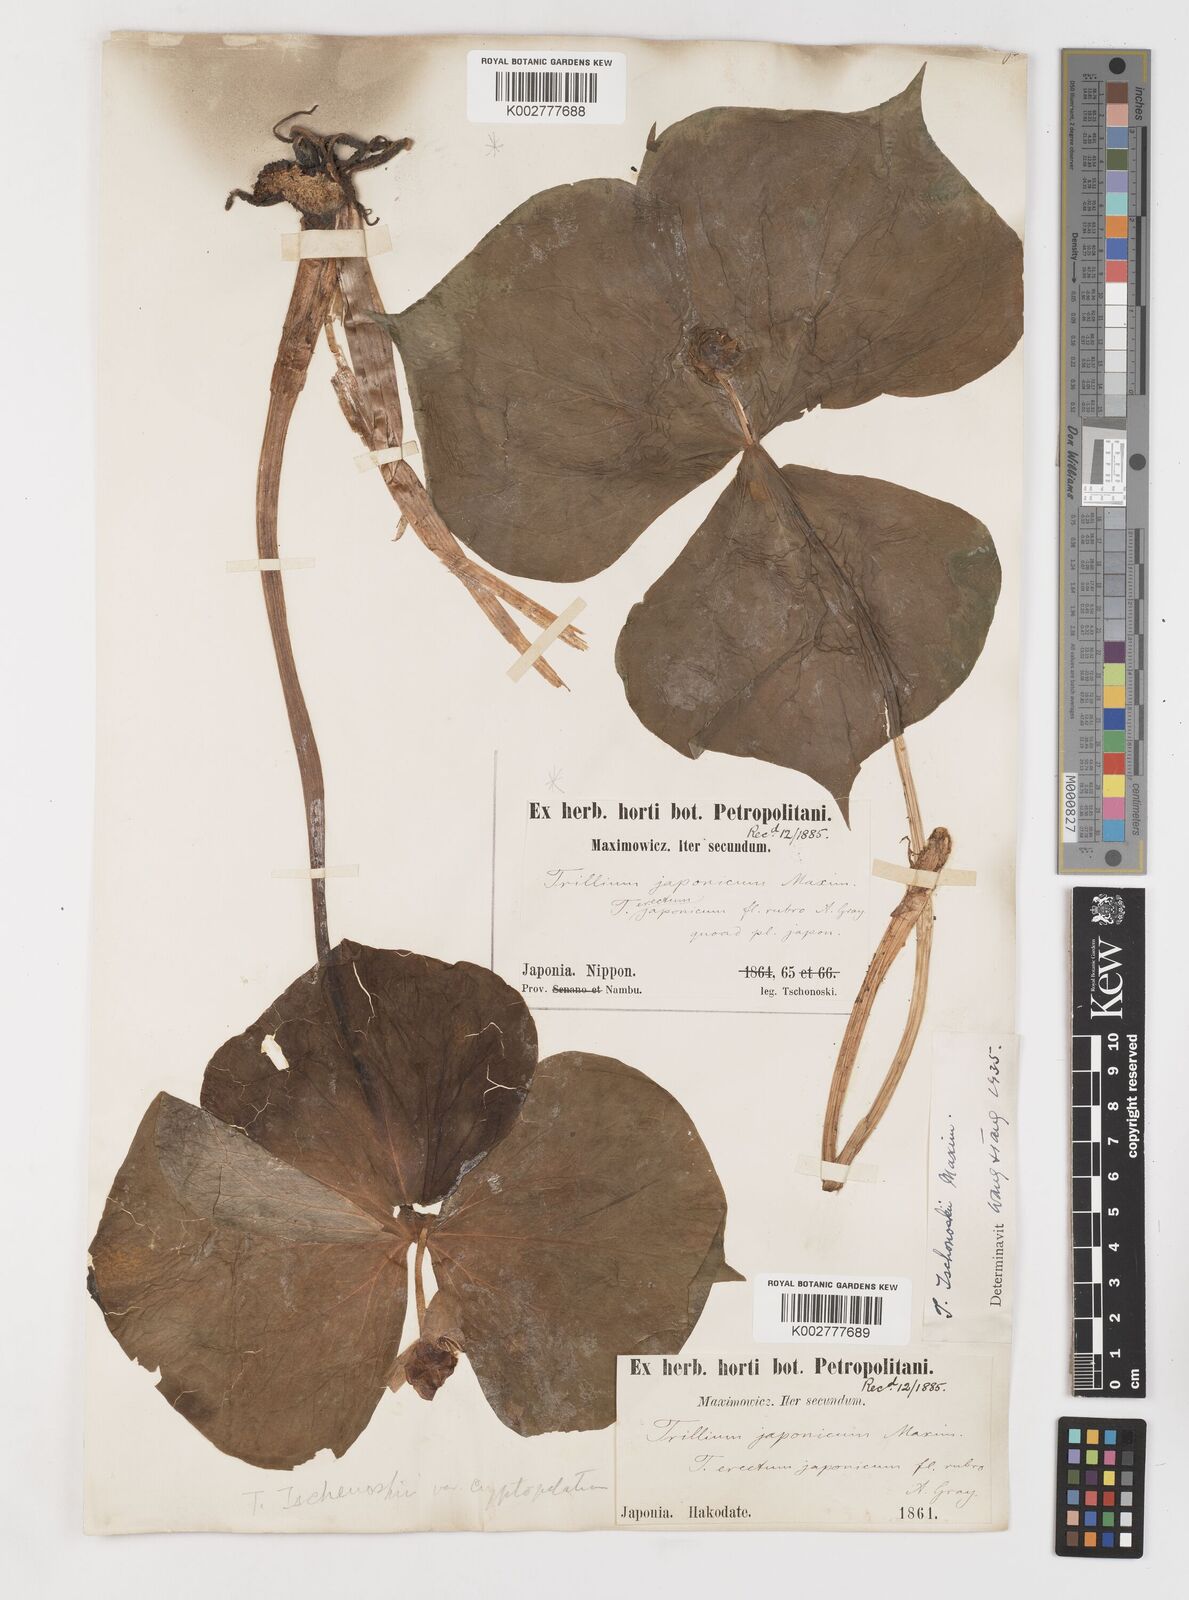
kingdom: Plantae
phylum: Tracheophyta
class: Liliopsida
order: Liliales
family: Melanthiaceae
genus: Trillium
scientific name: Trillium tschonoskii
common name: A pearl on head
